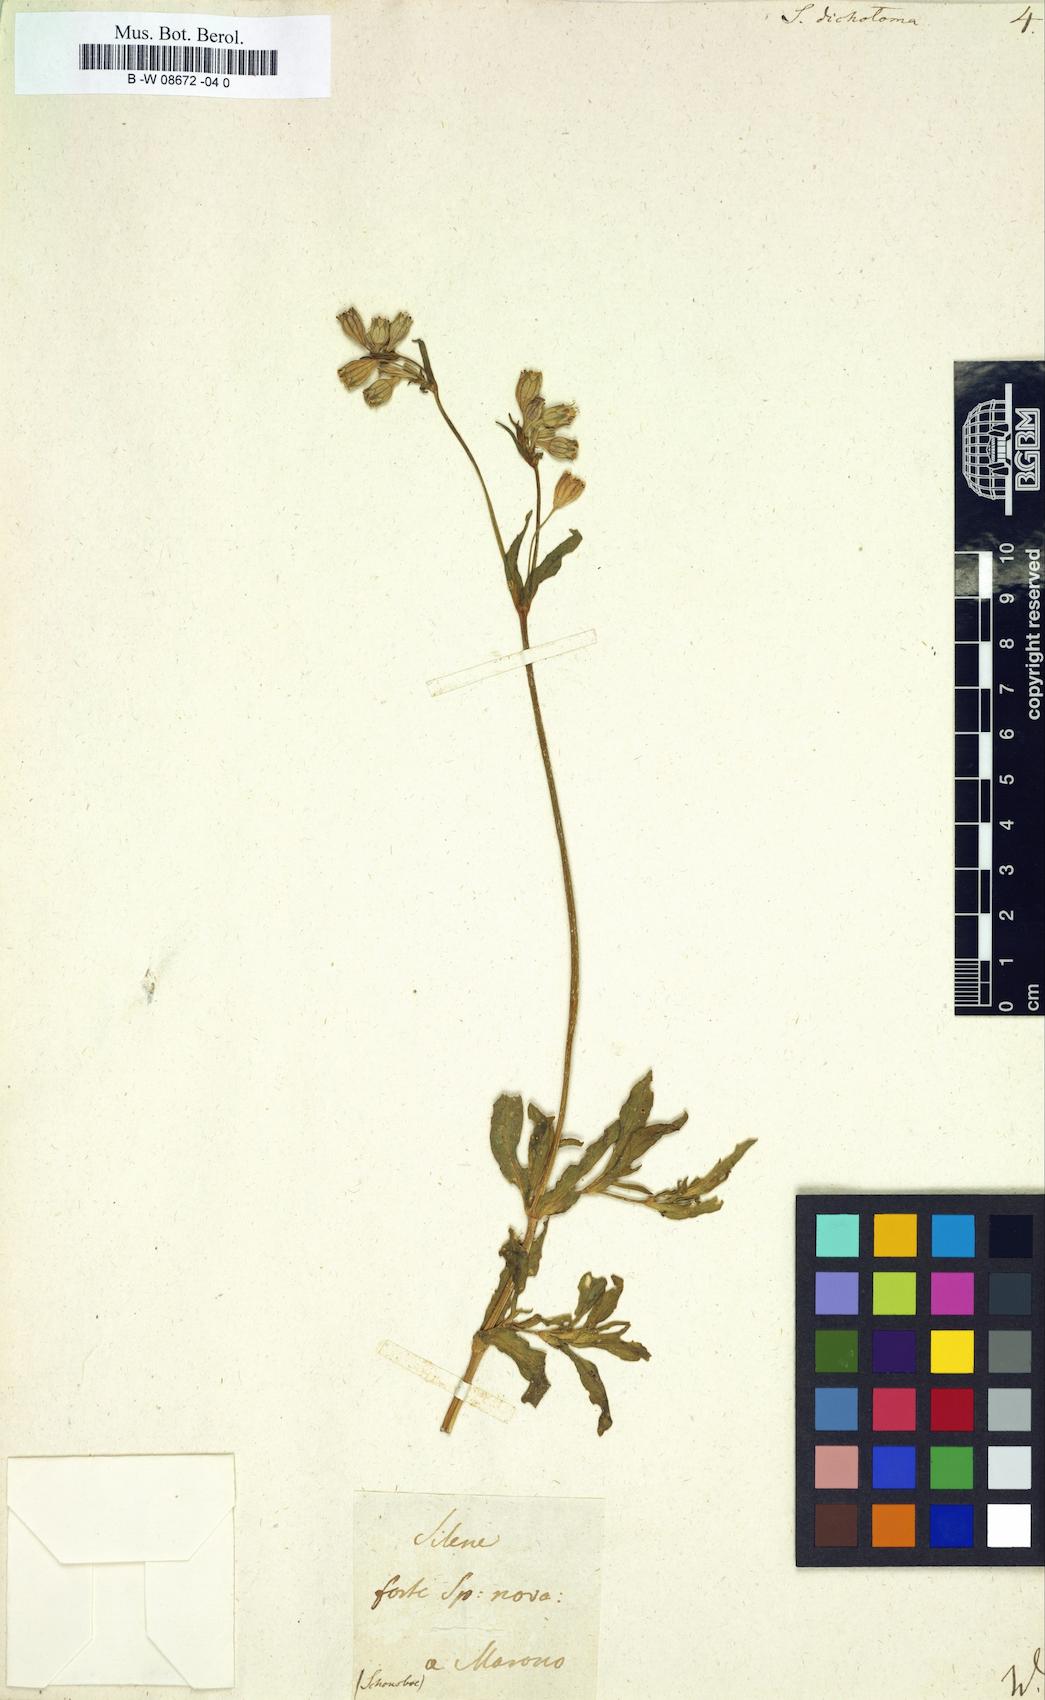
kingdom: Plantae
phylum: Tracheophyta
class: Magnoliopsida
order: Caryophyllales
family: Caryophyllaceae
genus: Silene
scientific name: Silene dichotoma
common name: Forked catchfly
